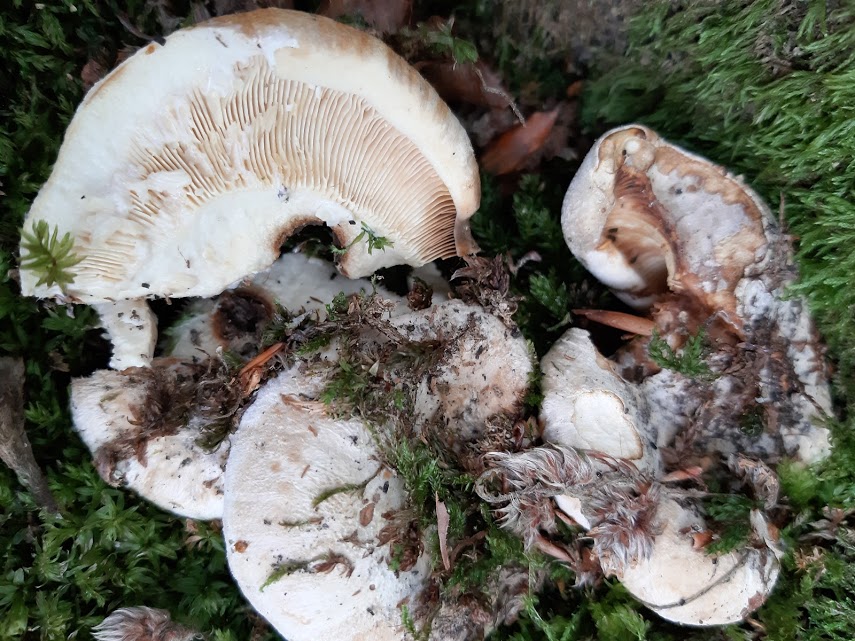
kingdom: Fungi
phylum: Basidiomycota
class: Agaricomycetes
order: Russulales
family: Russulaceae
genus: Lactarius
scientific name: Lactarius
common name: mælkehat
